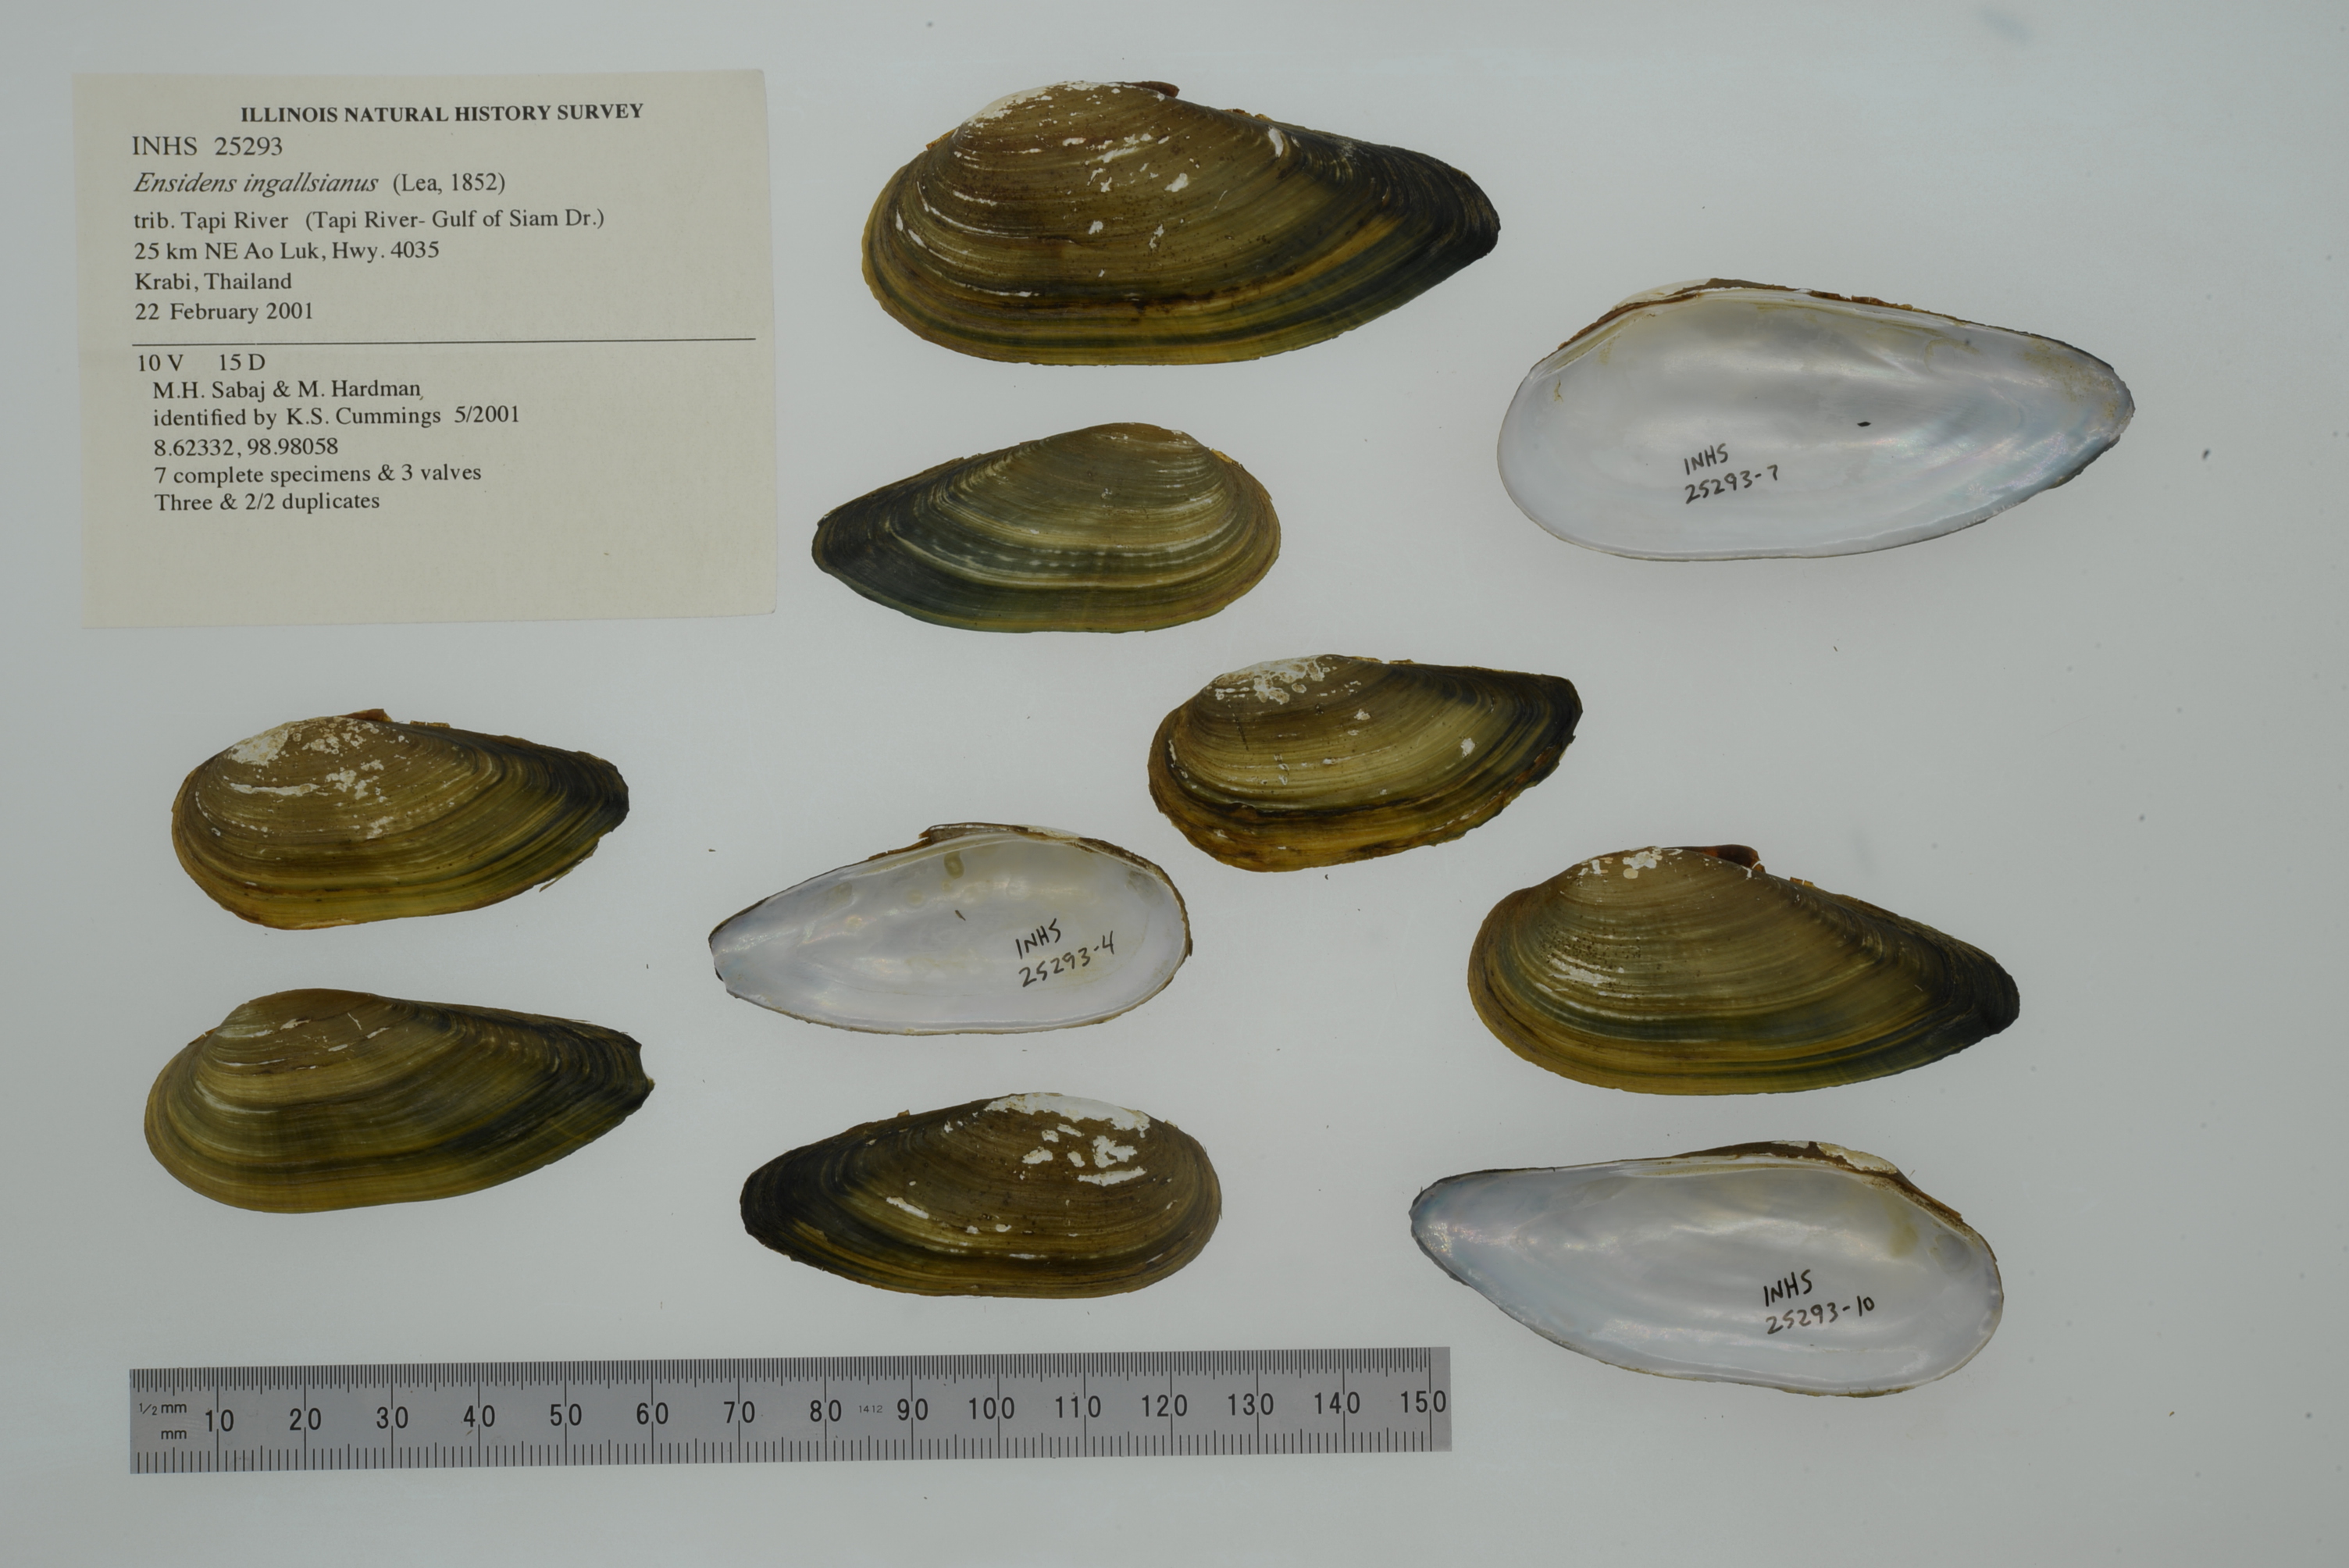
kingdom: Animalia
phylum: Mollusca
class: Bivalvia
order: Unionida
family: Unionidae
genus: Ensidens
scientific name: Ensidens ingallsianus
